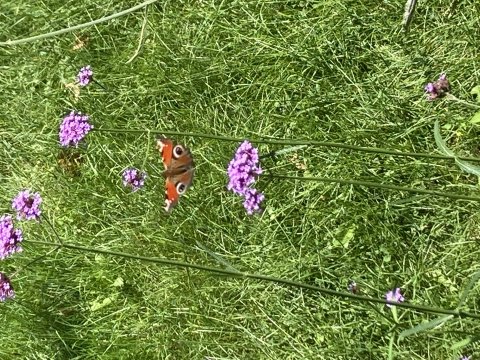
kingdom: Animalia
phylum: Arthropoda
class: Insecta
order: Lepidoptera
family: Nymphalidae
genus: Aglais
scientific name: Aglais io
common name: European Peacock
